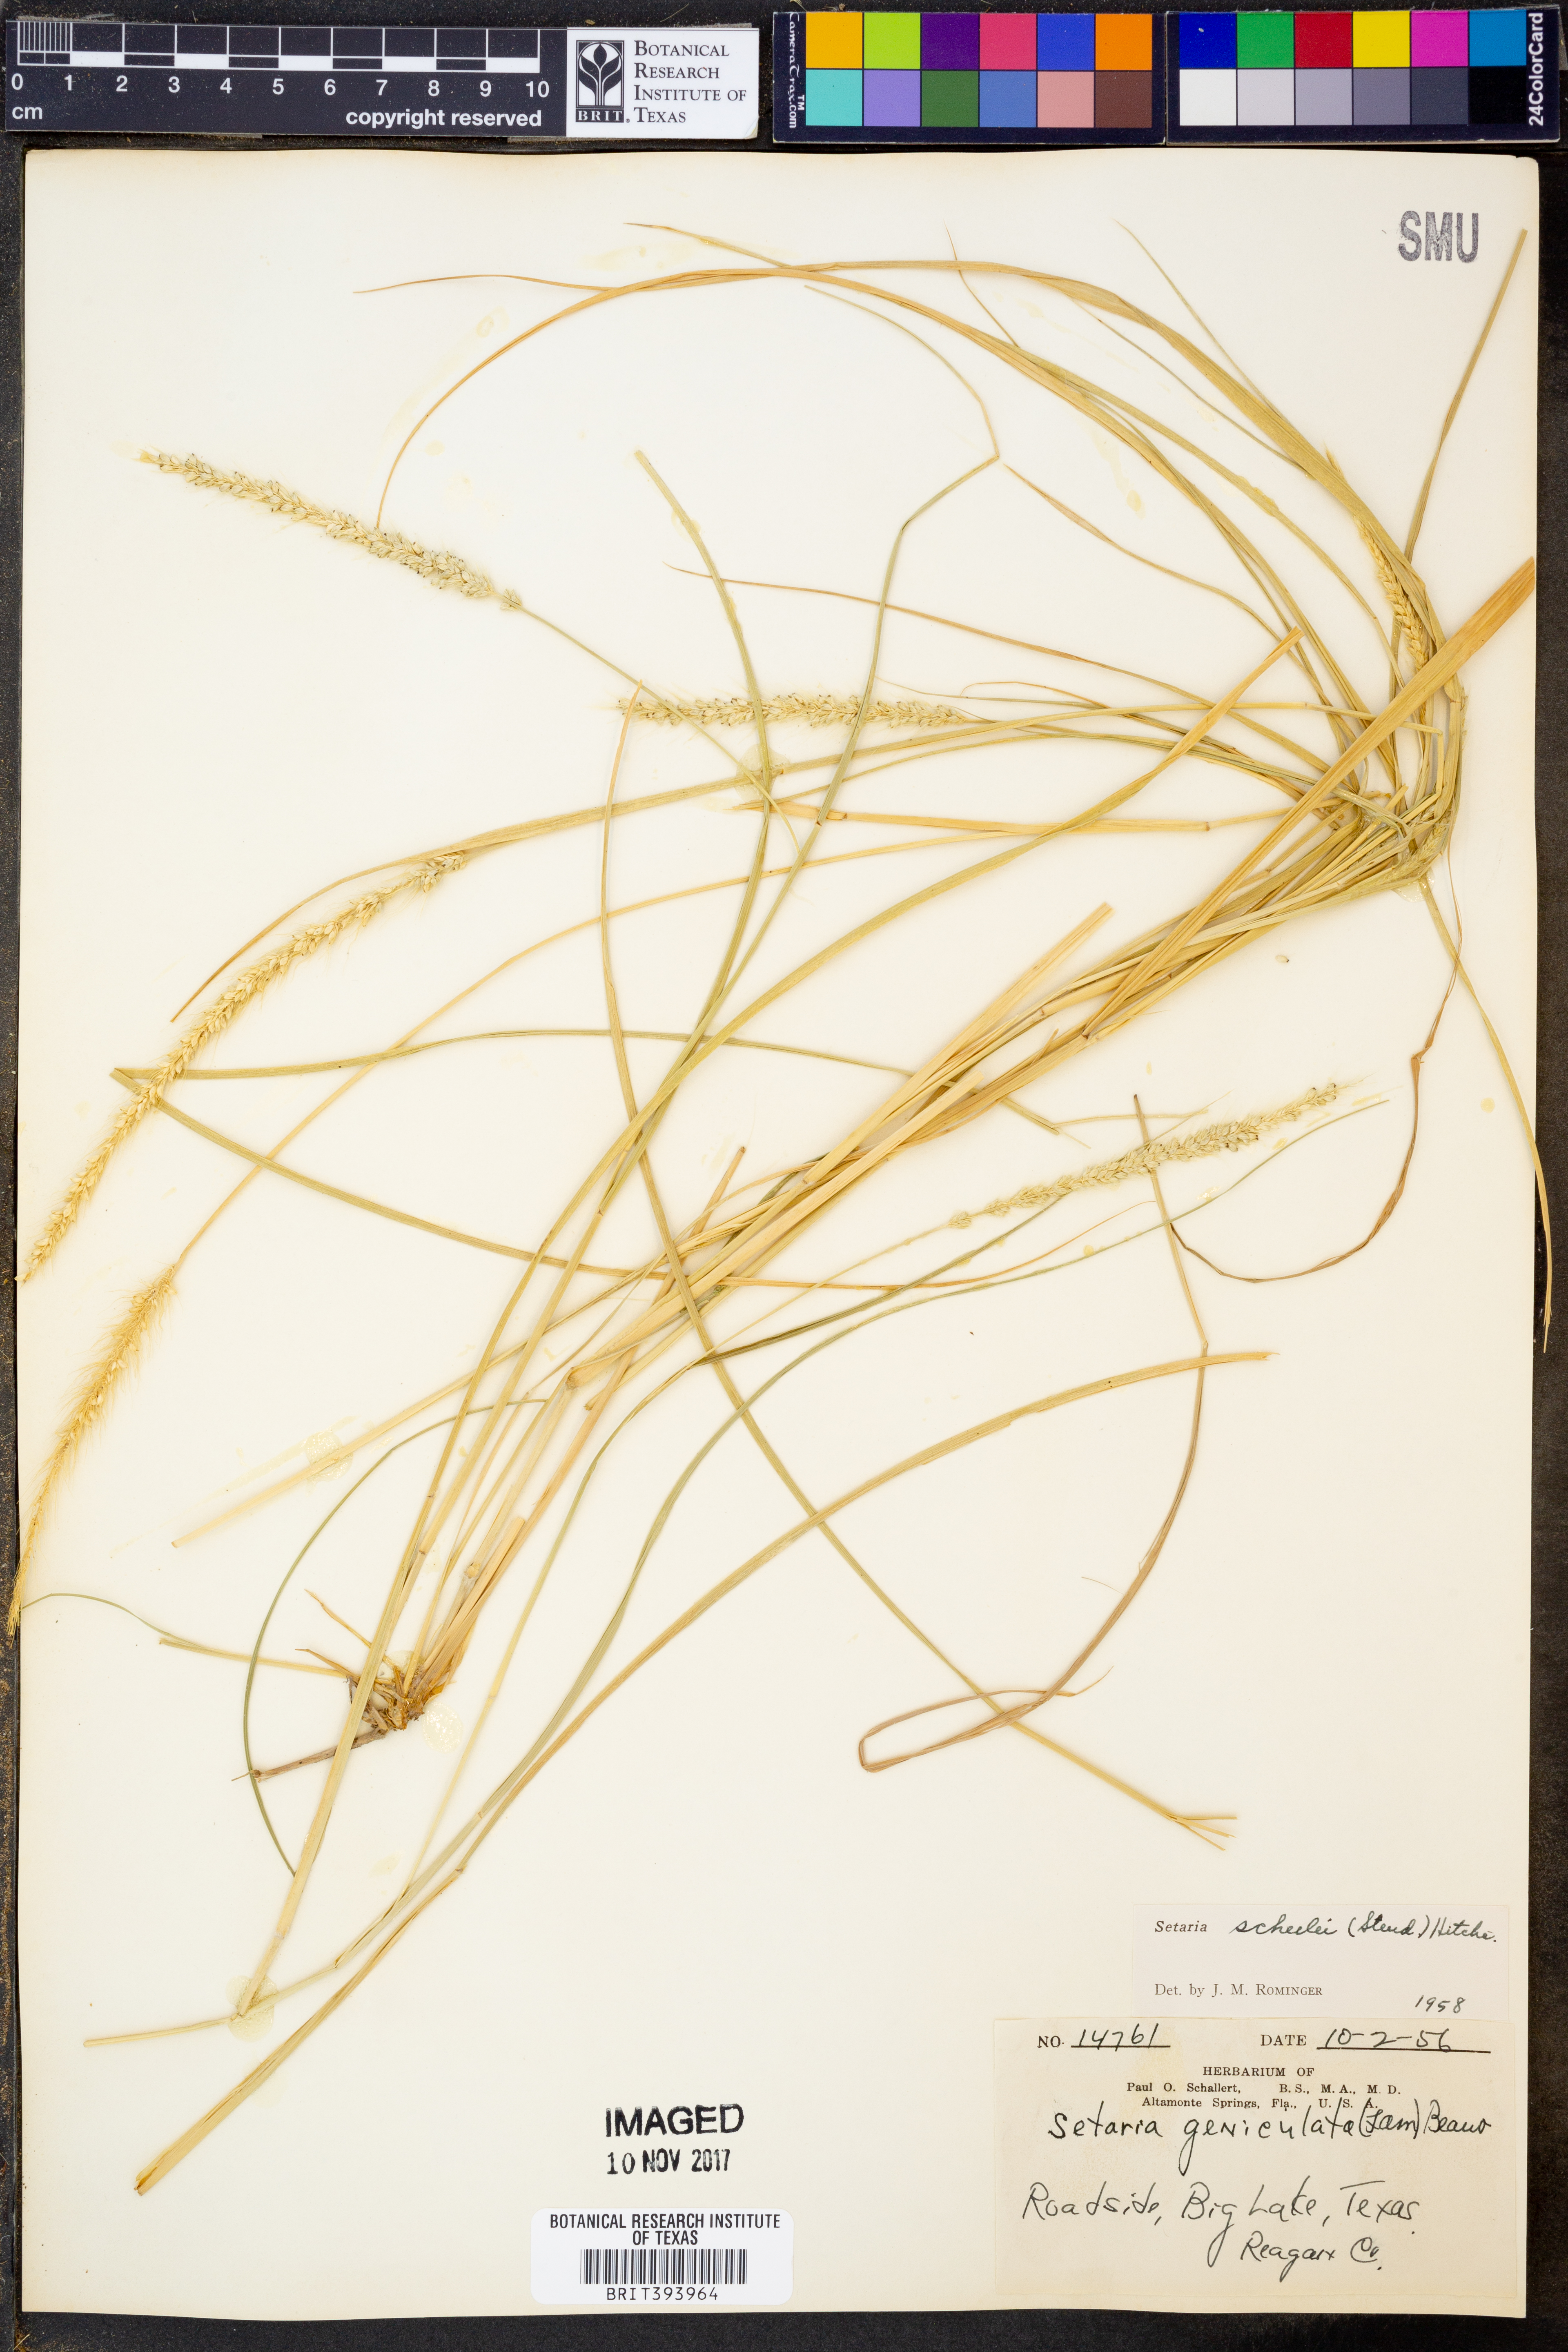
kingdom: Plantae
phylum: Tracheophyta
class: Liliopsida
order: Poales
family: Poaceae
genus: Setaria
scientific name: Setaria scheelei
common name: Southwestern bristle grass
